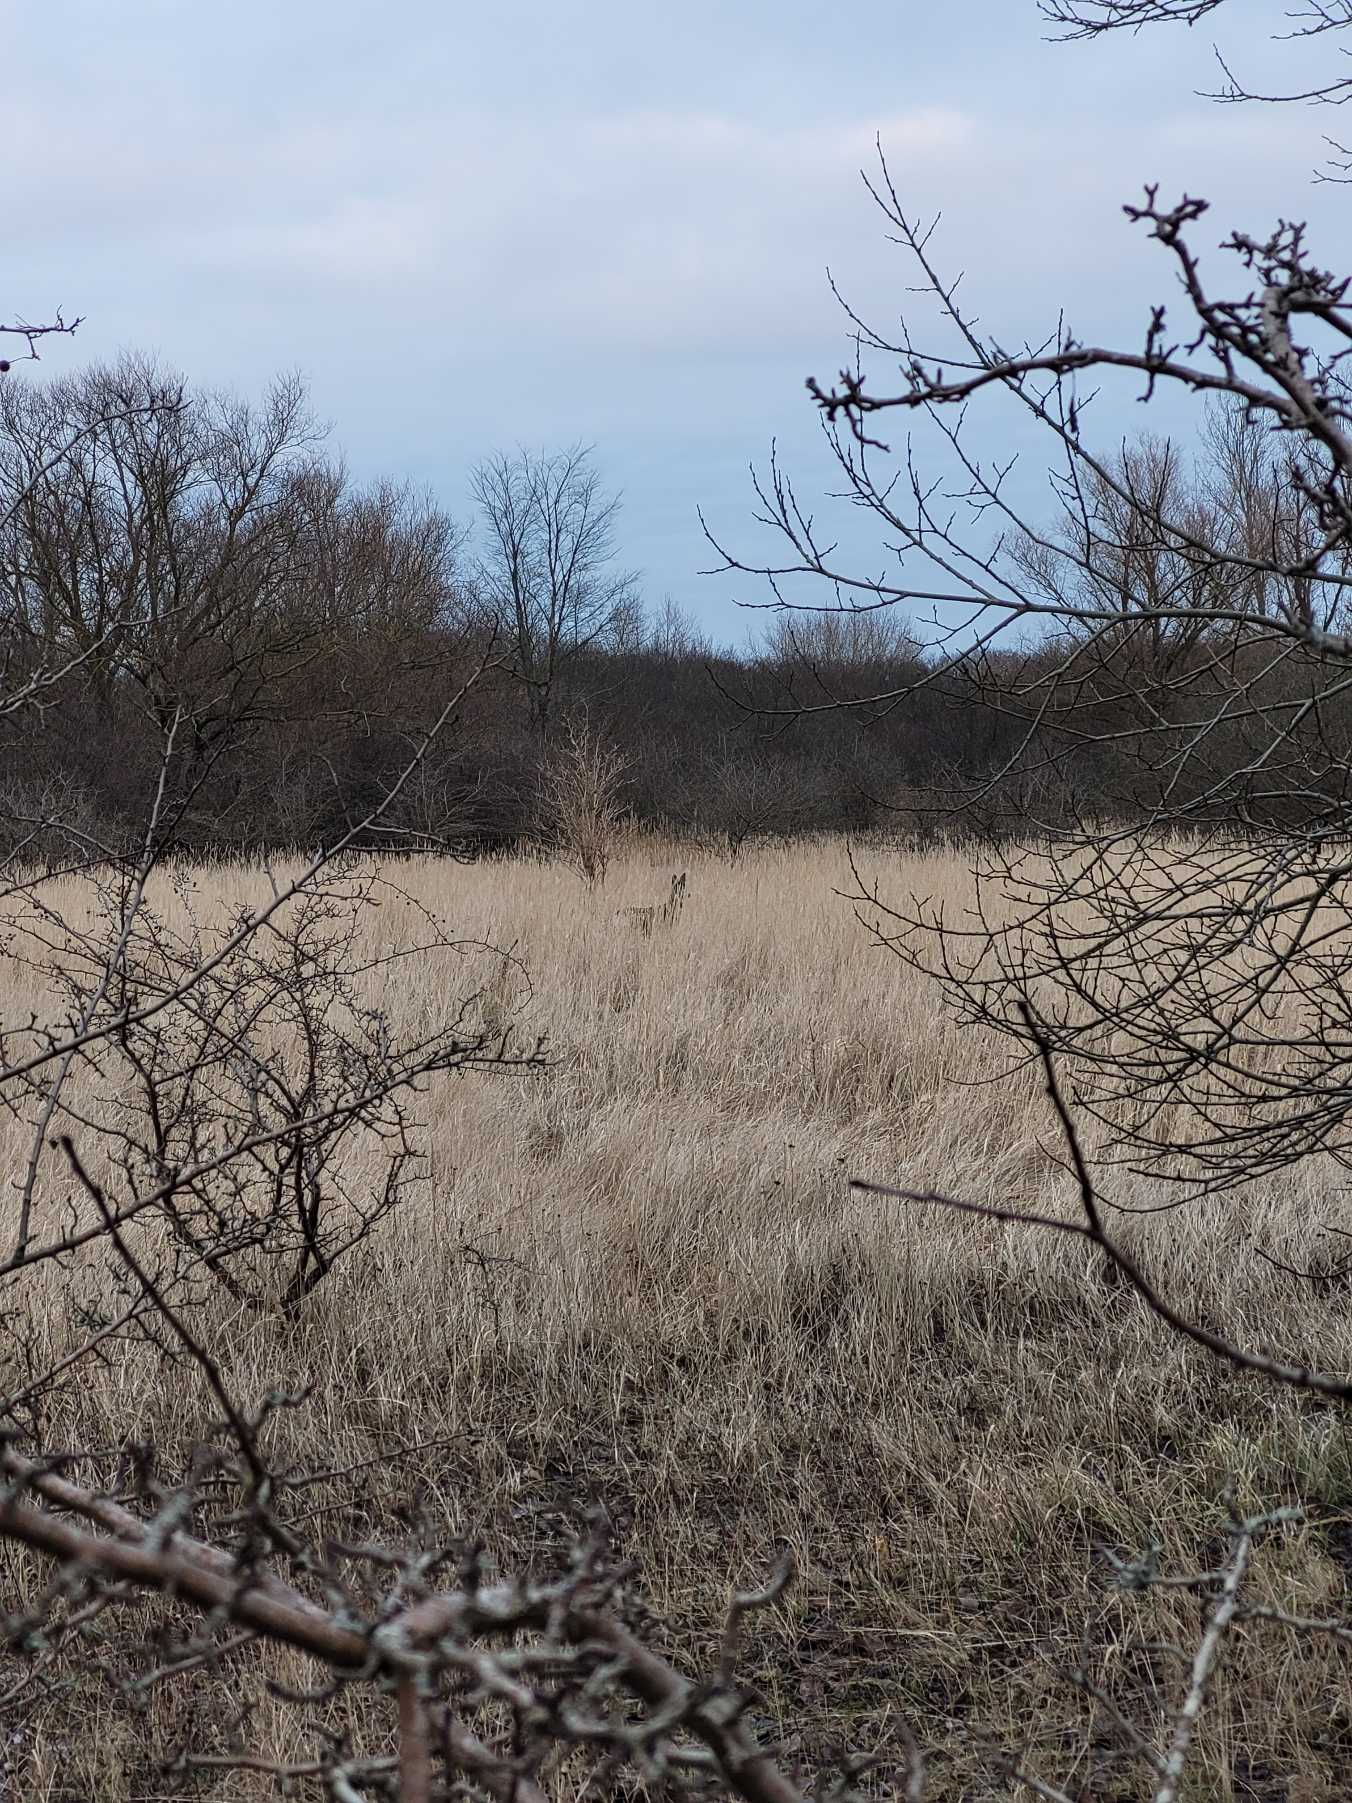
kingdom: Animalia
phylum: Chordata
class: Mammalia
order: Artiodactyla
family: Cervidae
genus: Capreolus
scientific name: Capreolus capreolus
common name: Rådyr
